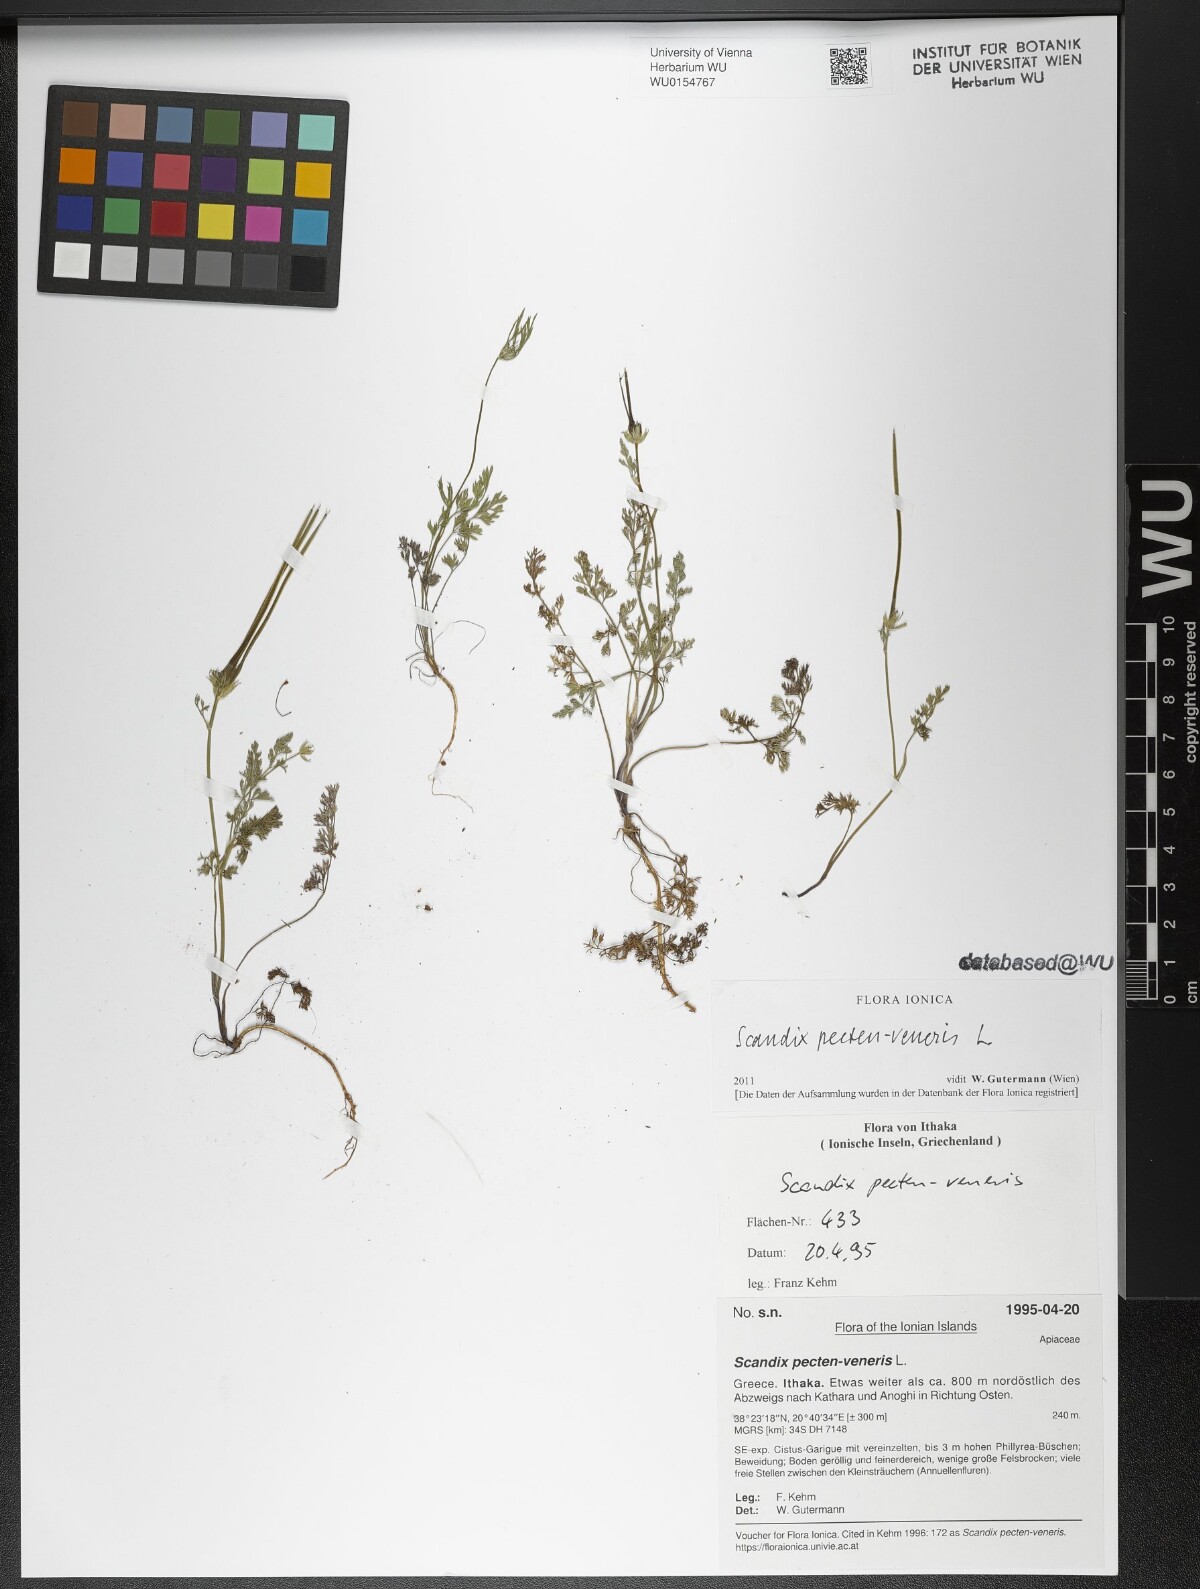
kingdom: Plantae
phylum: Tracheophyta
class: Magnoliopsida
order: Apiales
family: Apiaceae
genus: Scandix
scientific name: Scandix pecten-veneris
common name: Shepherd's-needle
